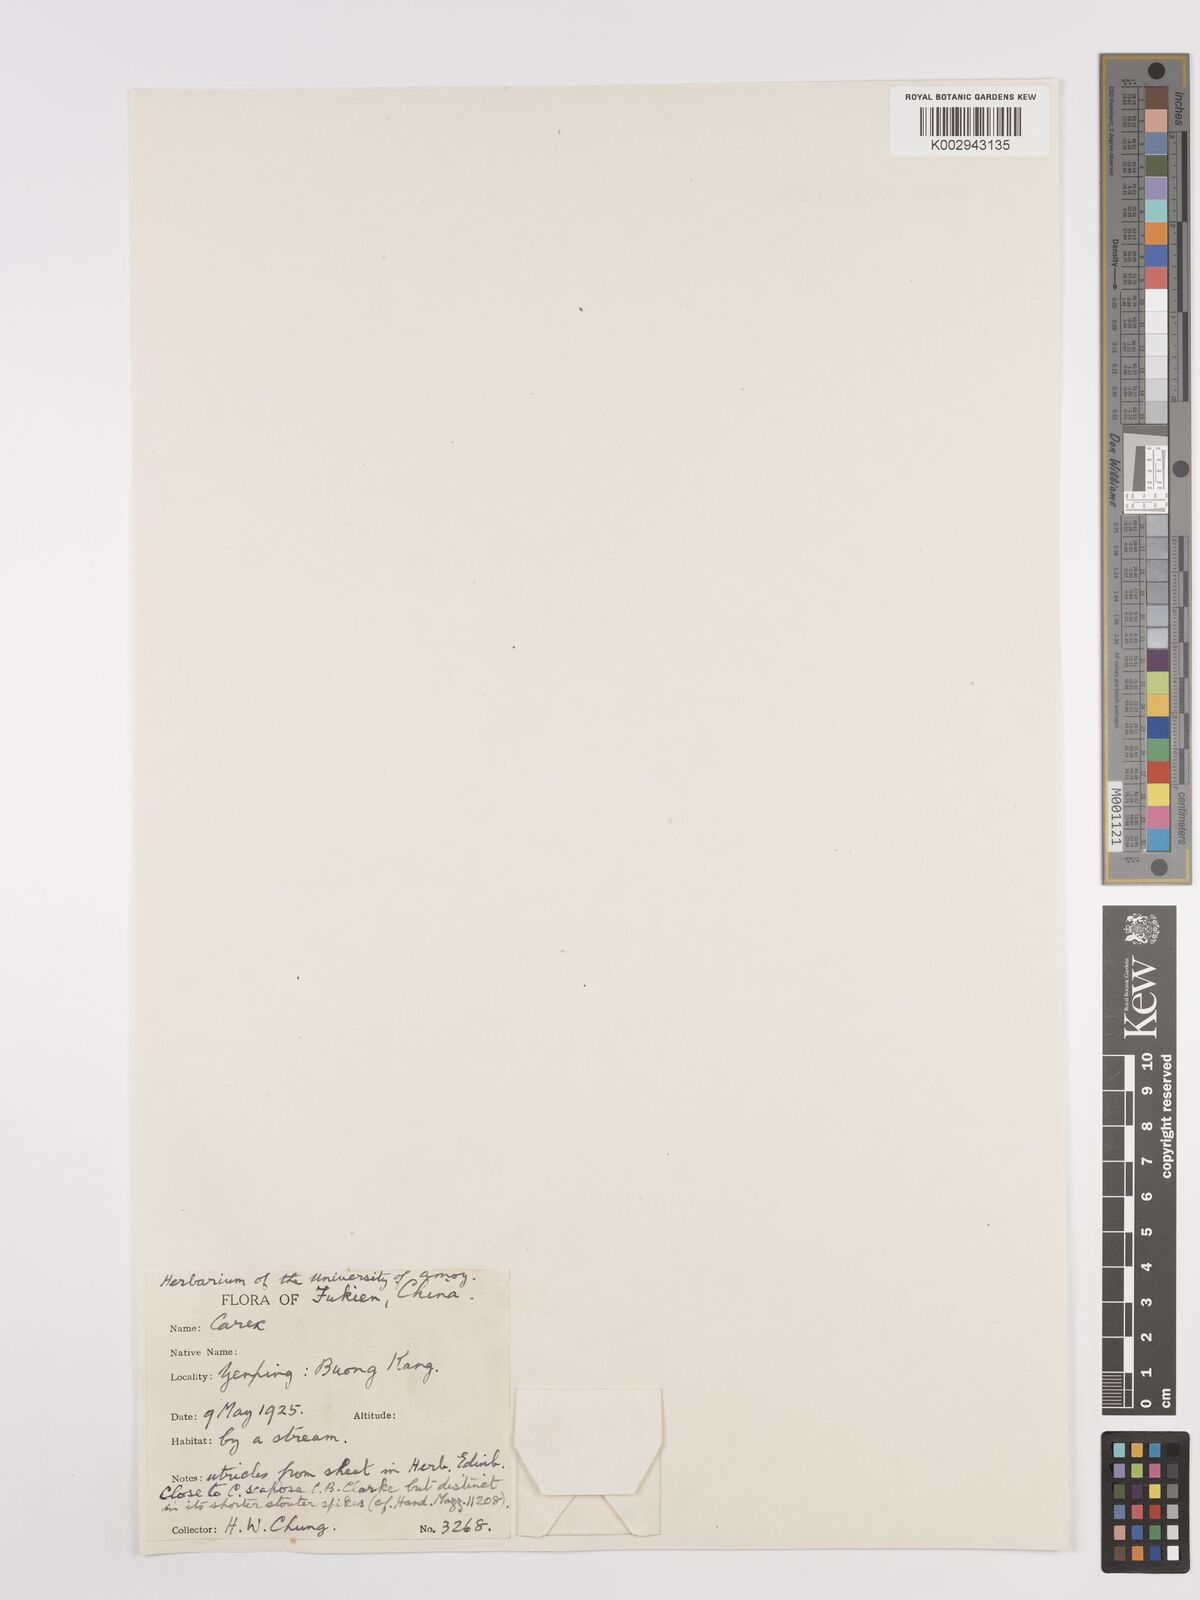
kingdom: Plantae
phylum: Tracheophyta
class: Liliopsida
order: Poales
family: Cyperaceae
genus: Carex
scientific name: Carex
